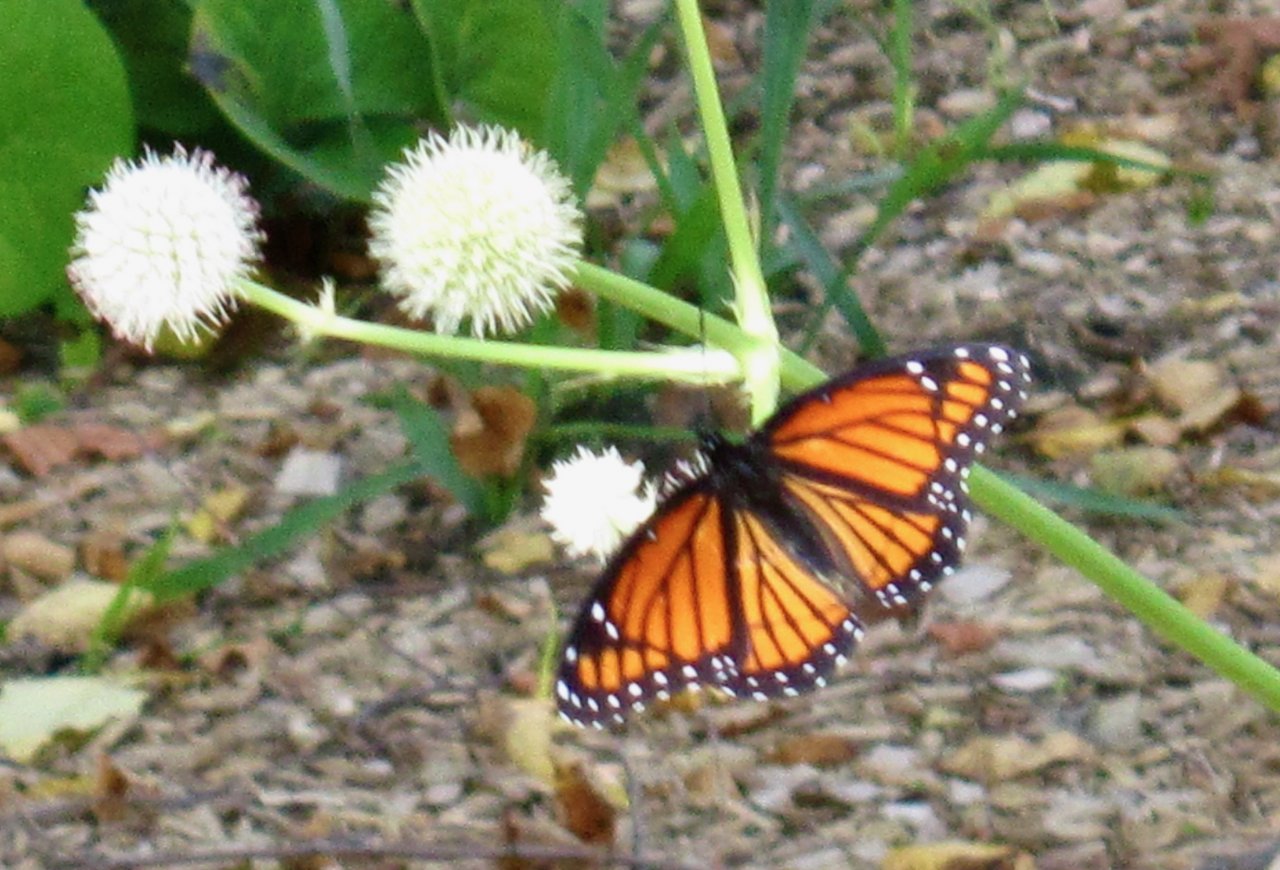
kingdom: Animalia
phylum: Arthropoda
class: Insecta
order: Lepidoptera
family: Nymphalidae
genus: Limenitis
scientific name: Limenitis archippus
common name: Viceroy
